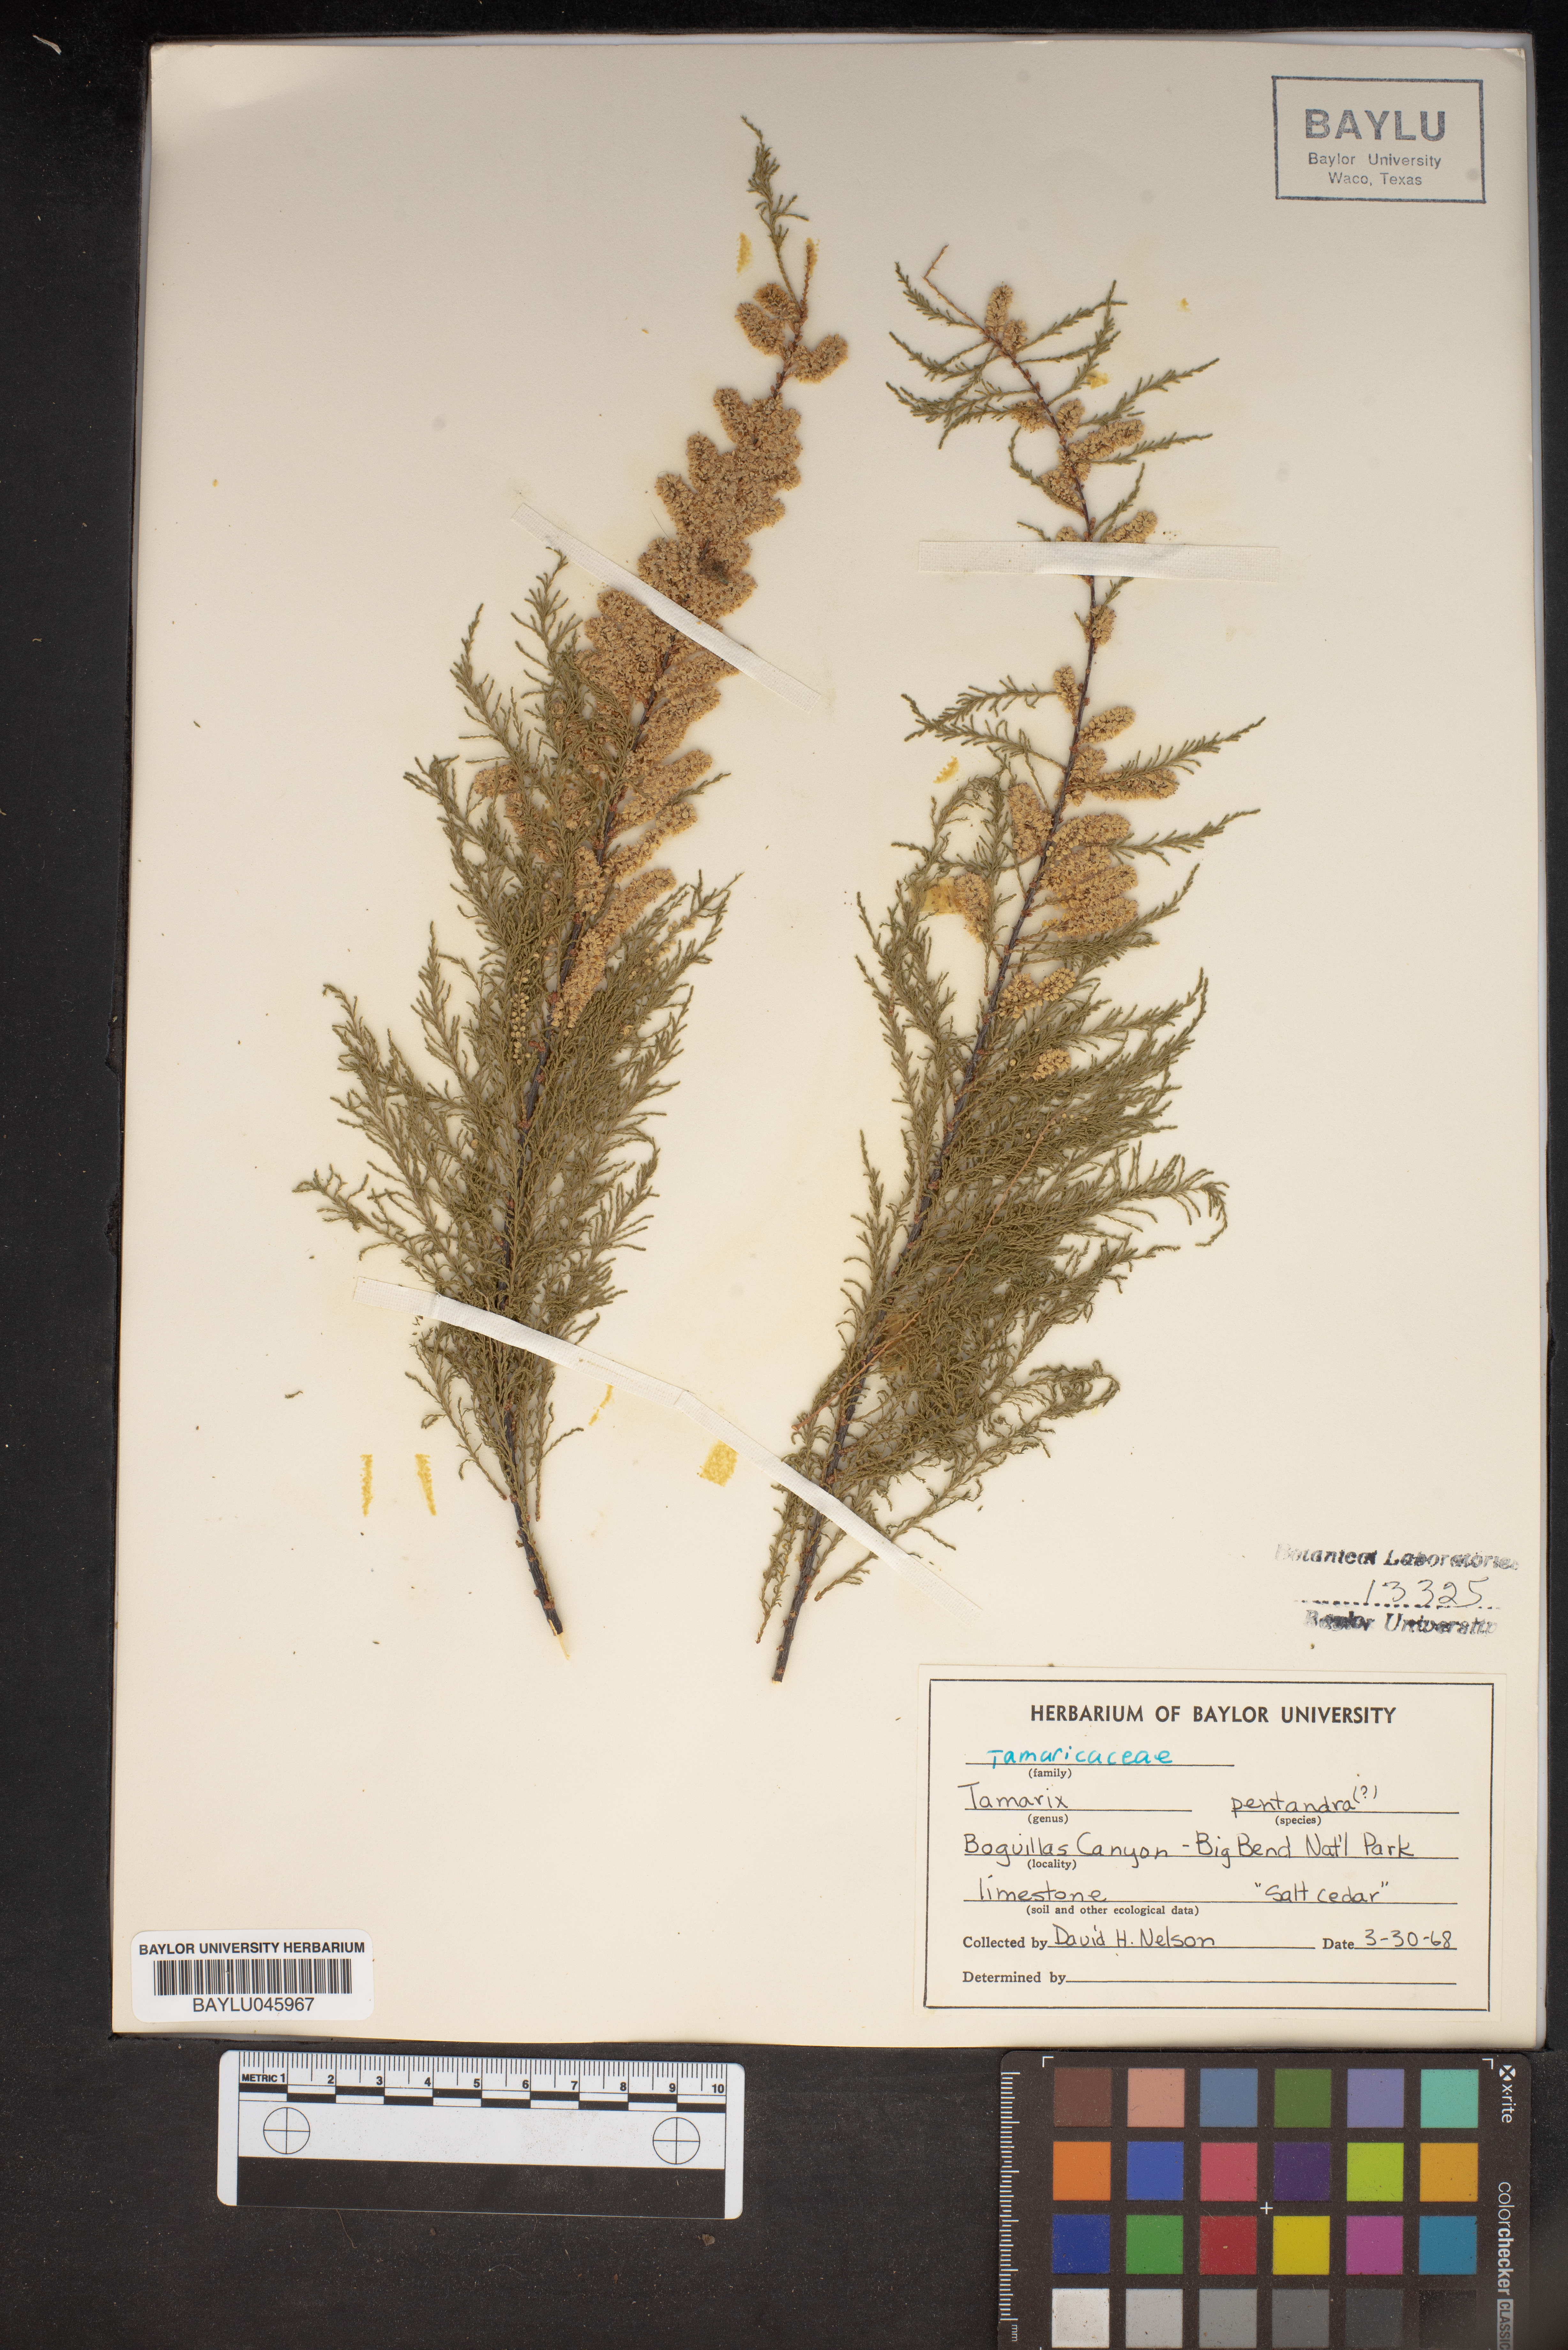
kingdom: Plantae
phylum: Tracheophyta
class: Magnoliopsida
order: Caryophyllales
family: Tamaricaceae
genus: Tamarix
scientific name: Tamarix ramosissima
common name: Pink tamarisk
